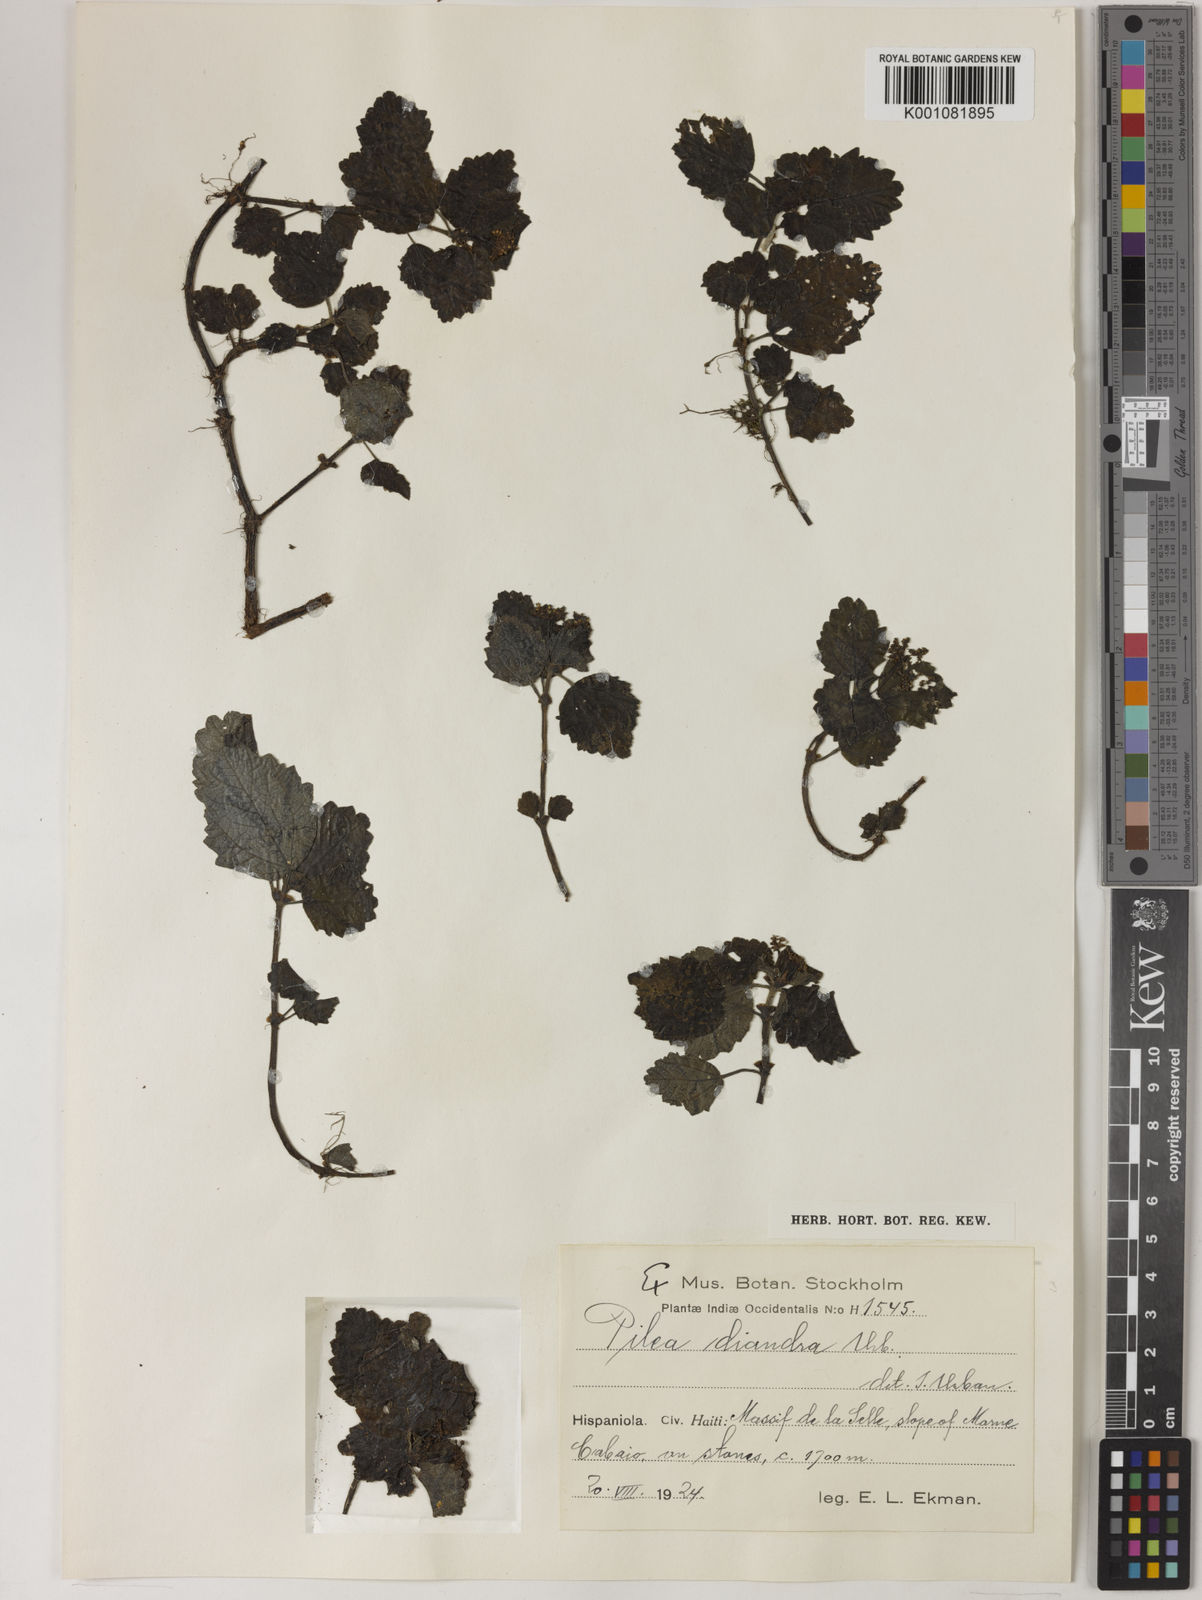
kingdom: Plantae
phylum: Tracheophyta
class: Magnoliopsida
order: Rosales
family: Urticaceae
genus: Pilea
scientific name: Pilea diandra
